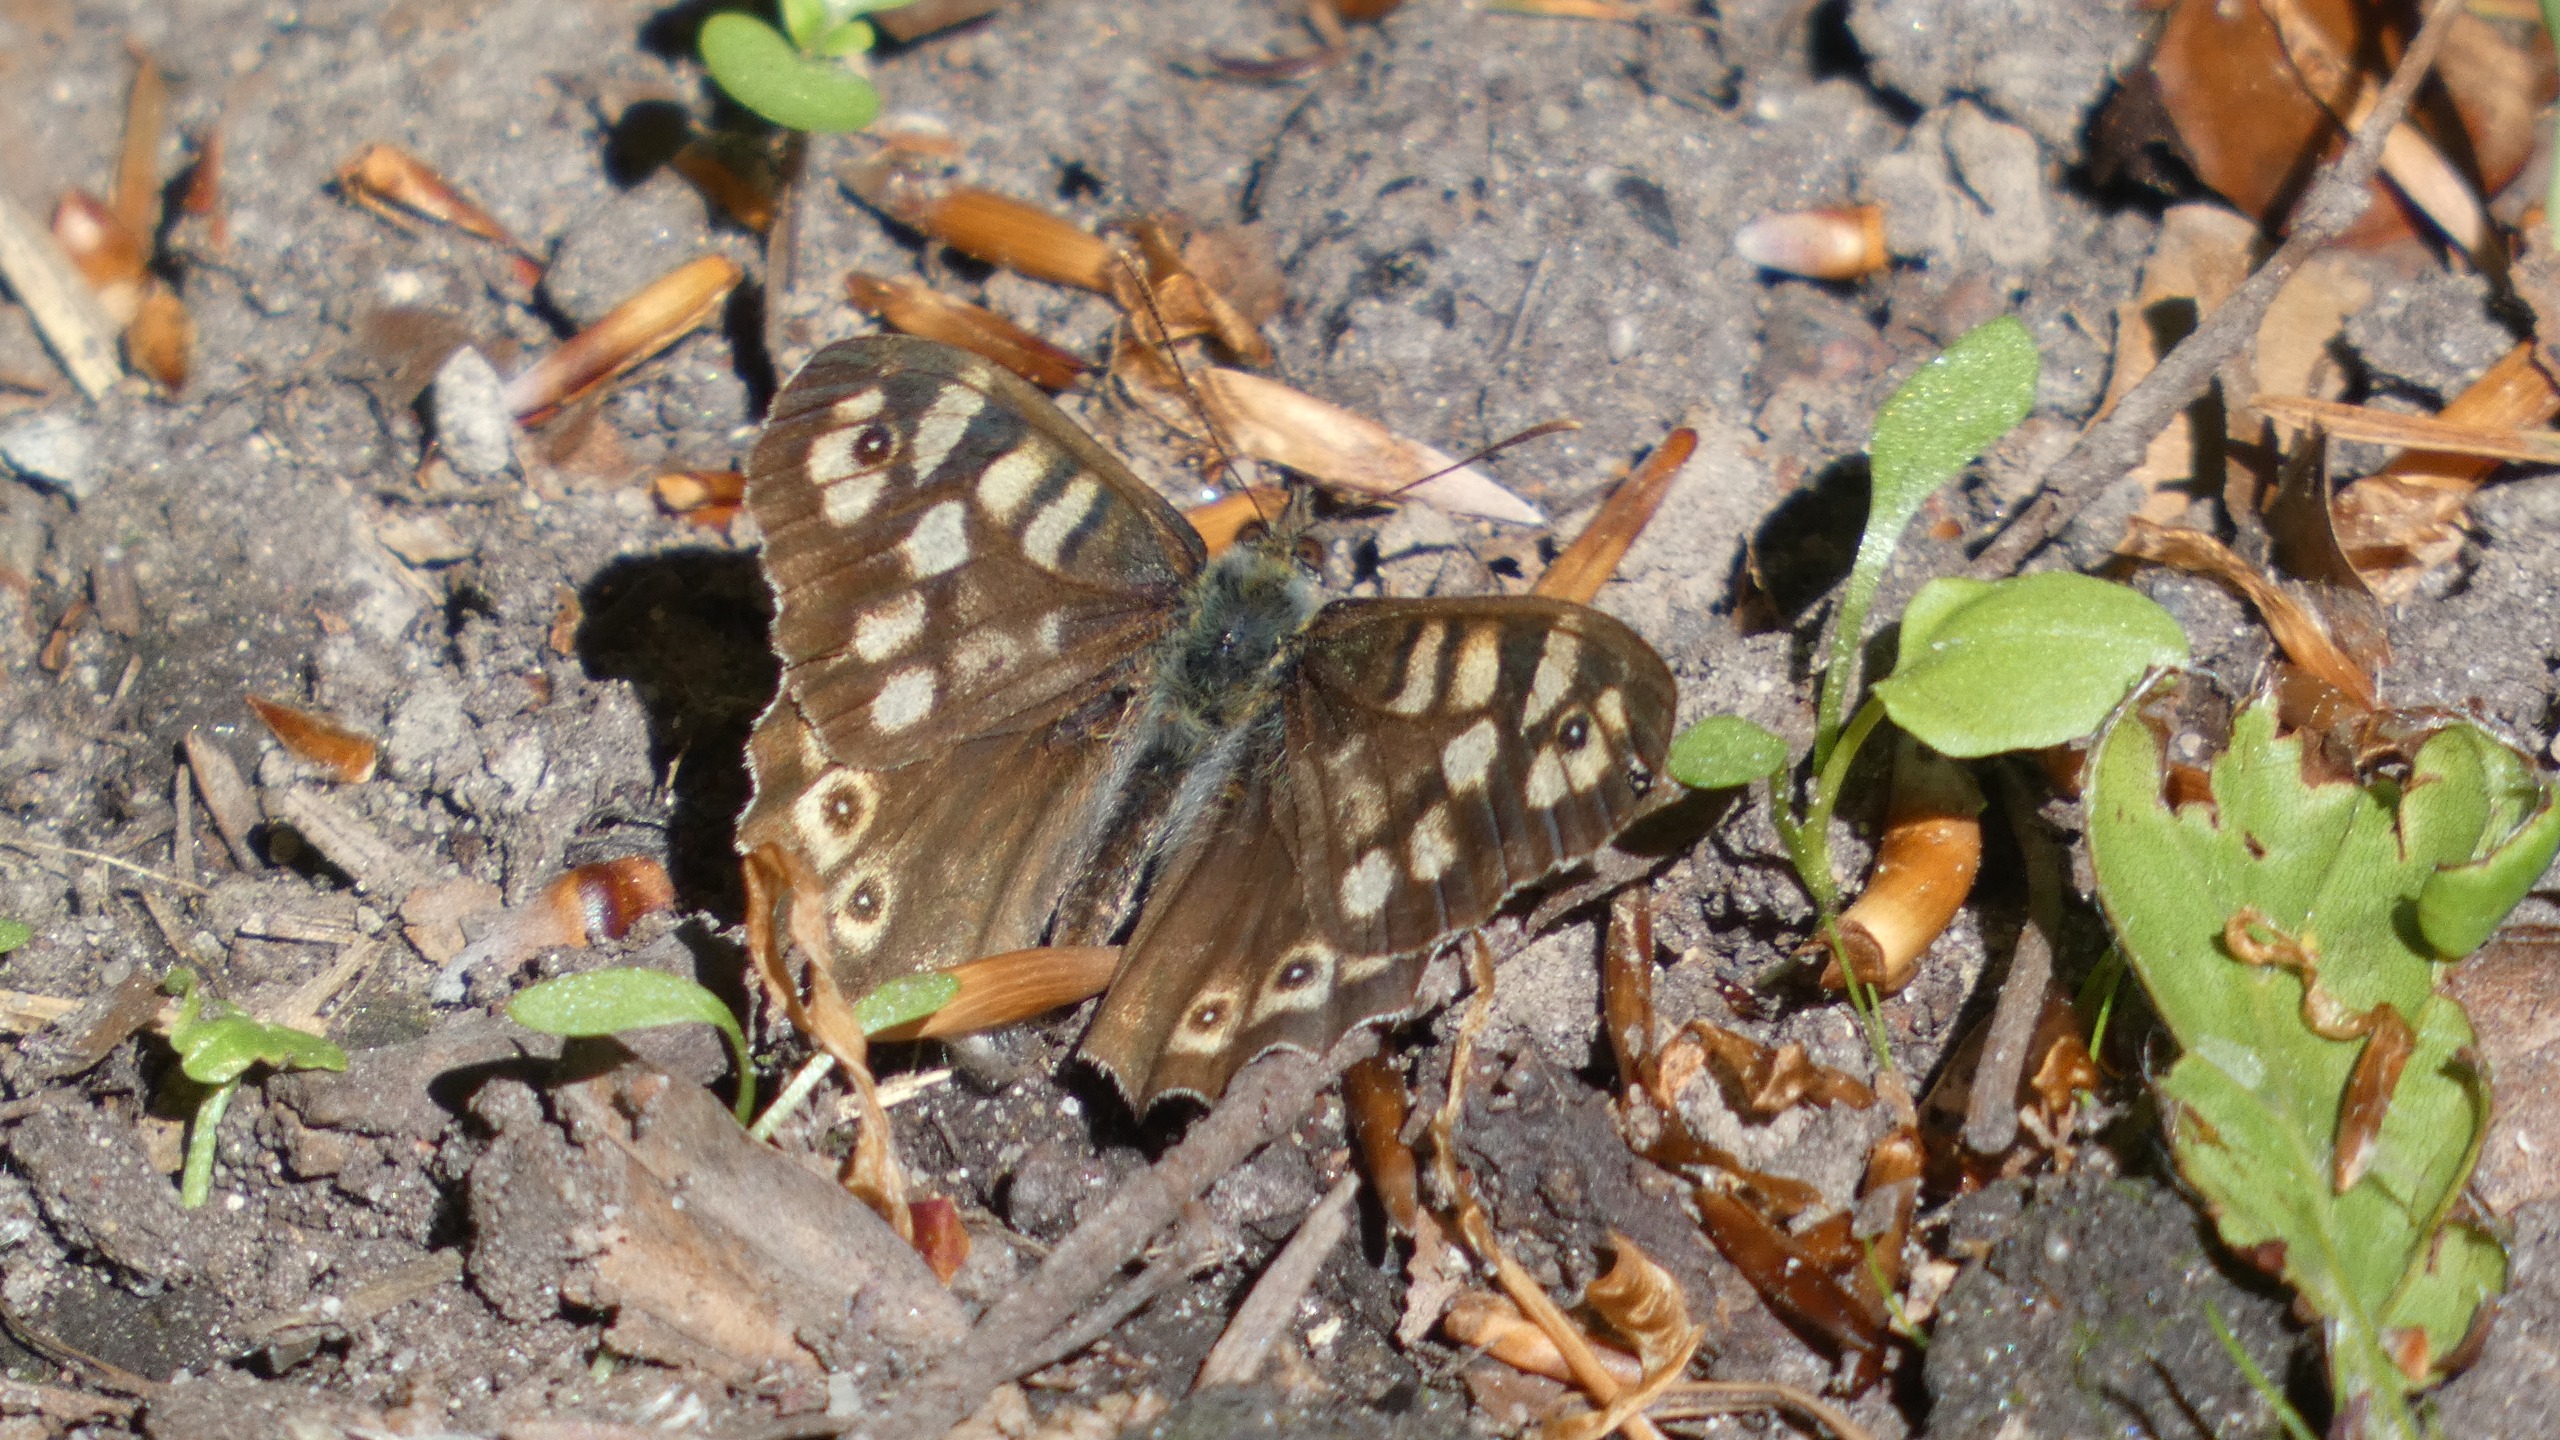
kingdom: Animalia
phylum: Arthropoda
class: Insecta
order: Lepidoptera
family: Nymphalidae
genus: Pararge
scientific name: Pararge aegeria
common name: Skovrandøje
